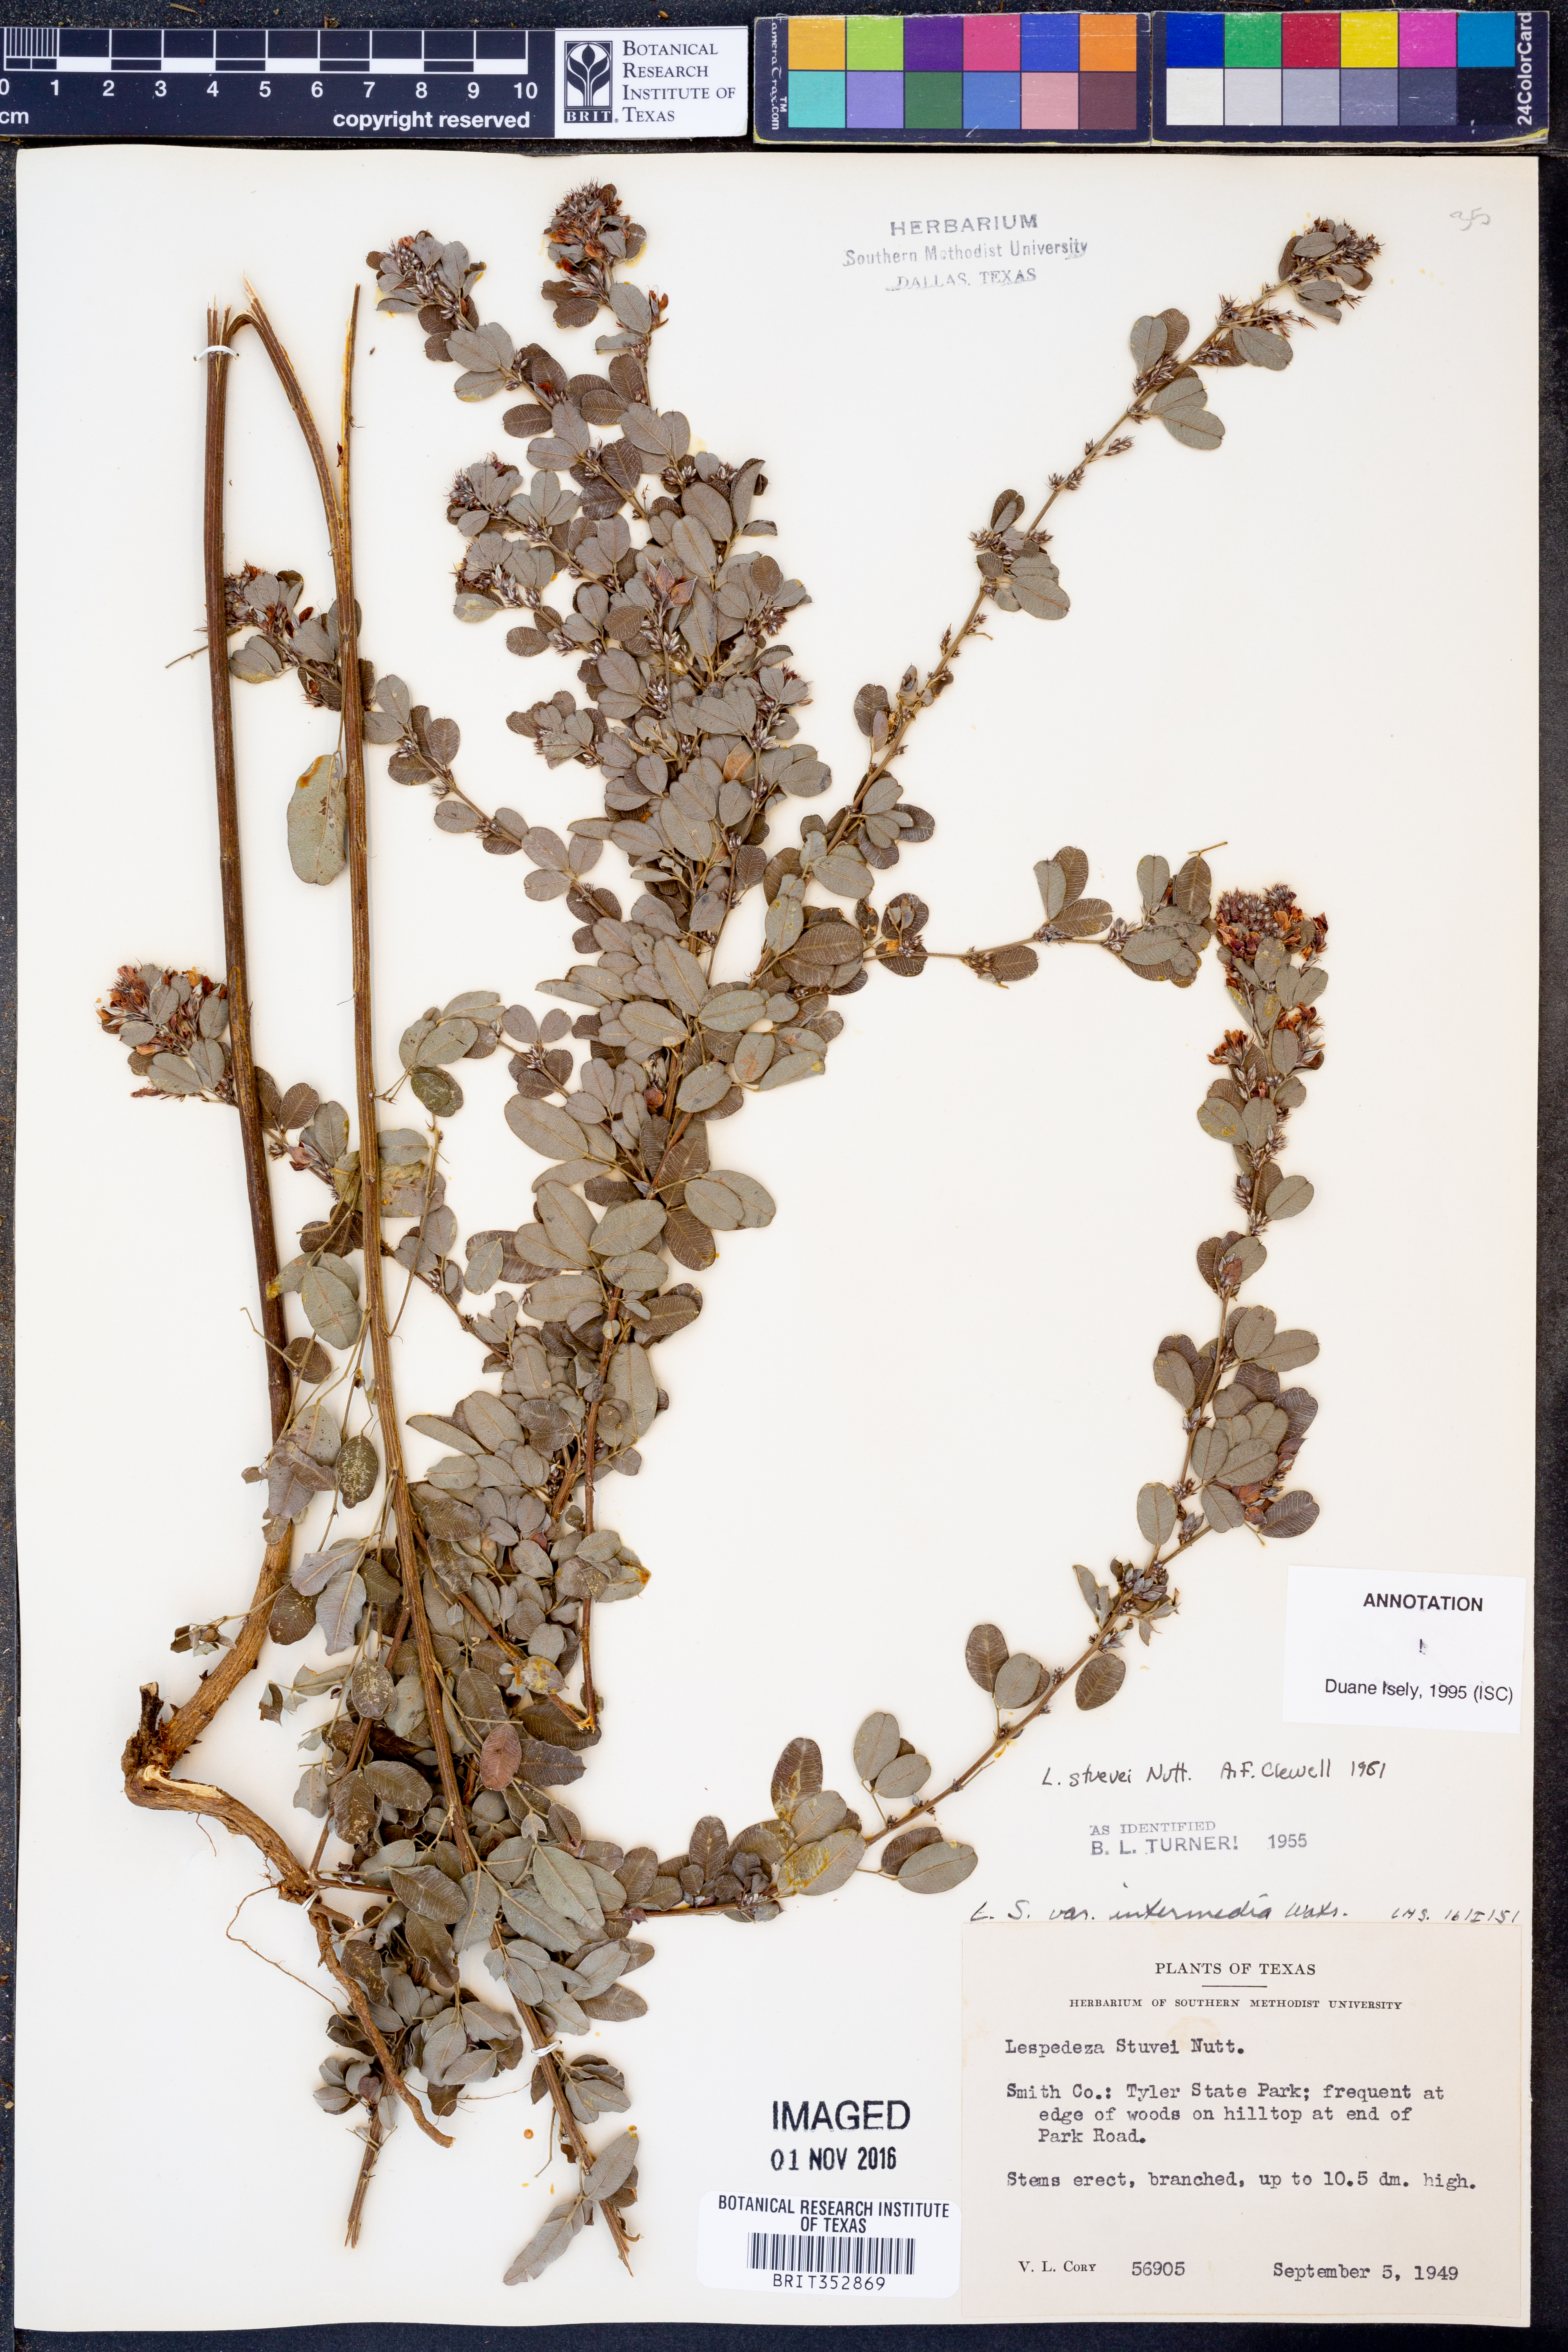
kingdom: Plantae
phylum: Tracheophyta
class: Magnoliopsida
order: Fabales
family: Fabaceae
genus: Lespedeza
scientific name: Lespedeza stuevei
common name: Tall bush-clover
